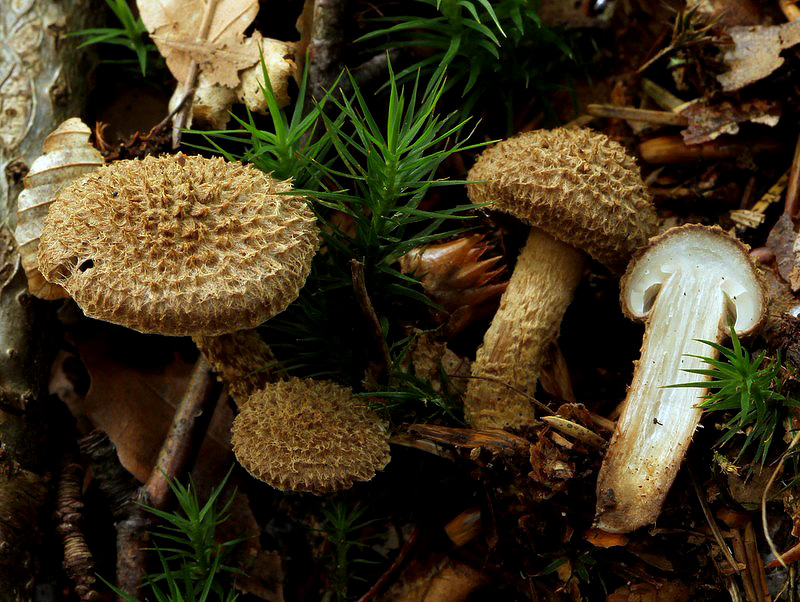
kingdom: Fungi
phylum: Basidiomycota
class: Agaricomycetes
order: Agaricales
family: Inocybaceae
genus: Inocybe
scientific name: Inocybe stellatospora
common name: spidsskællet trævlhat
